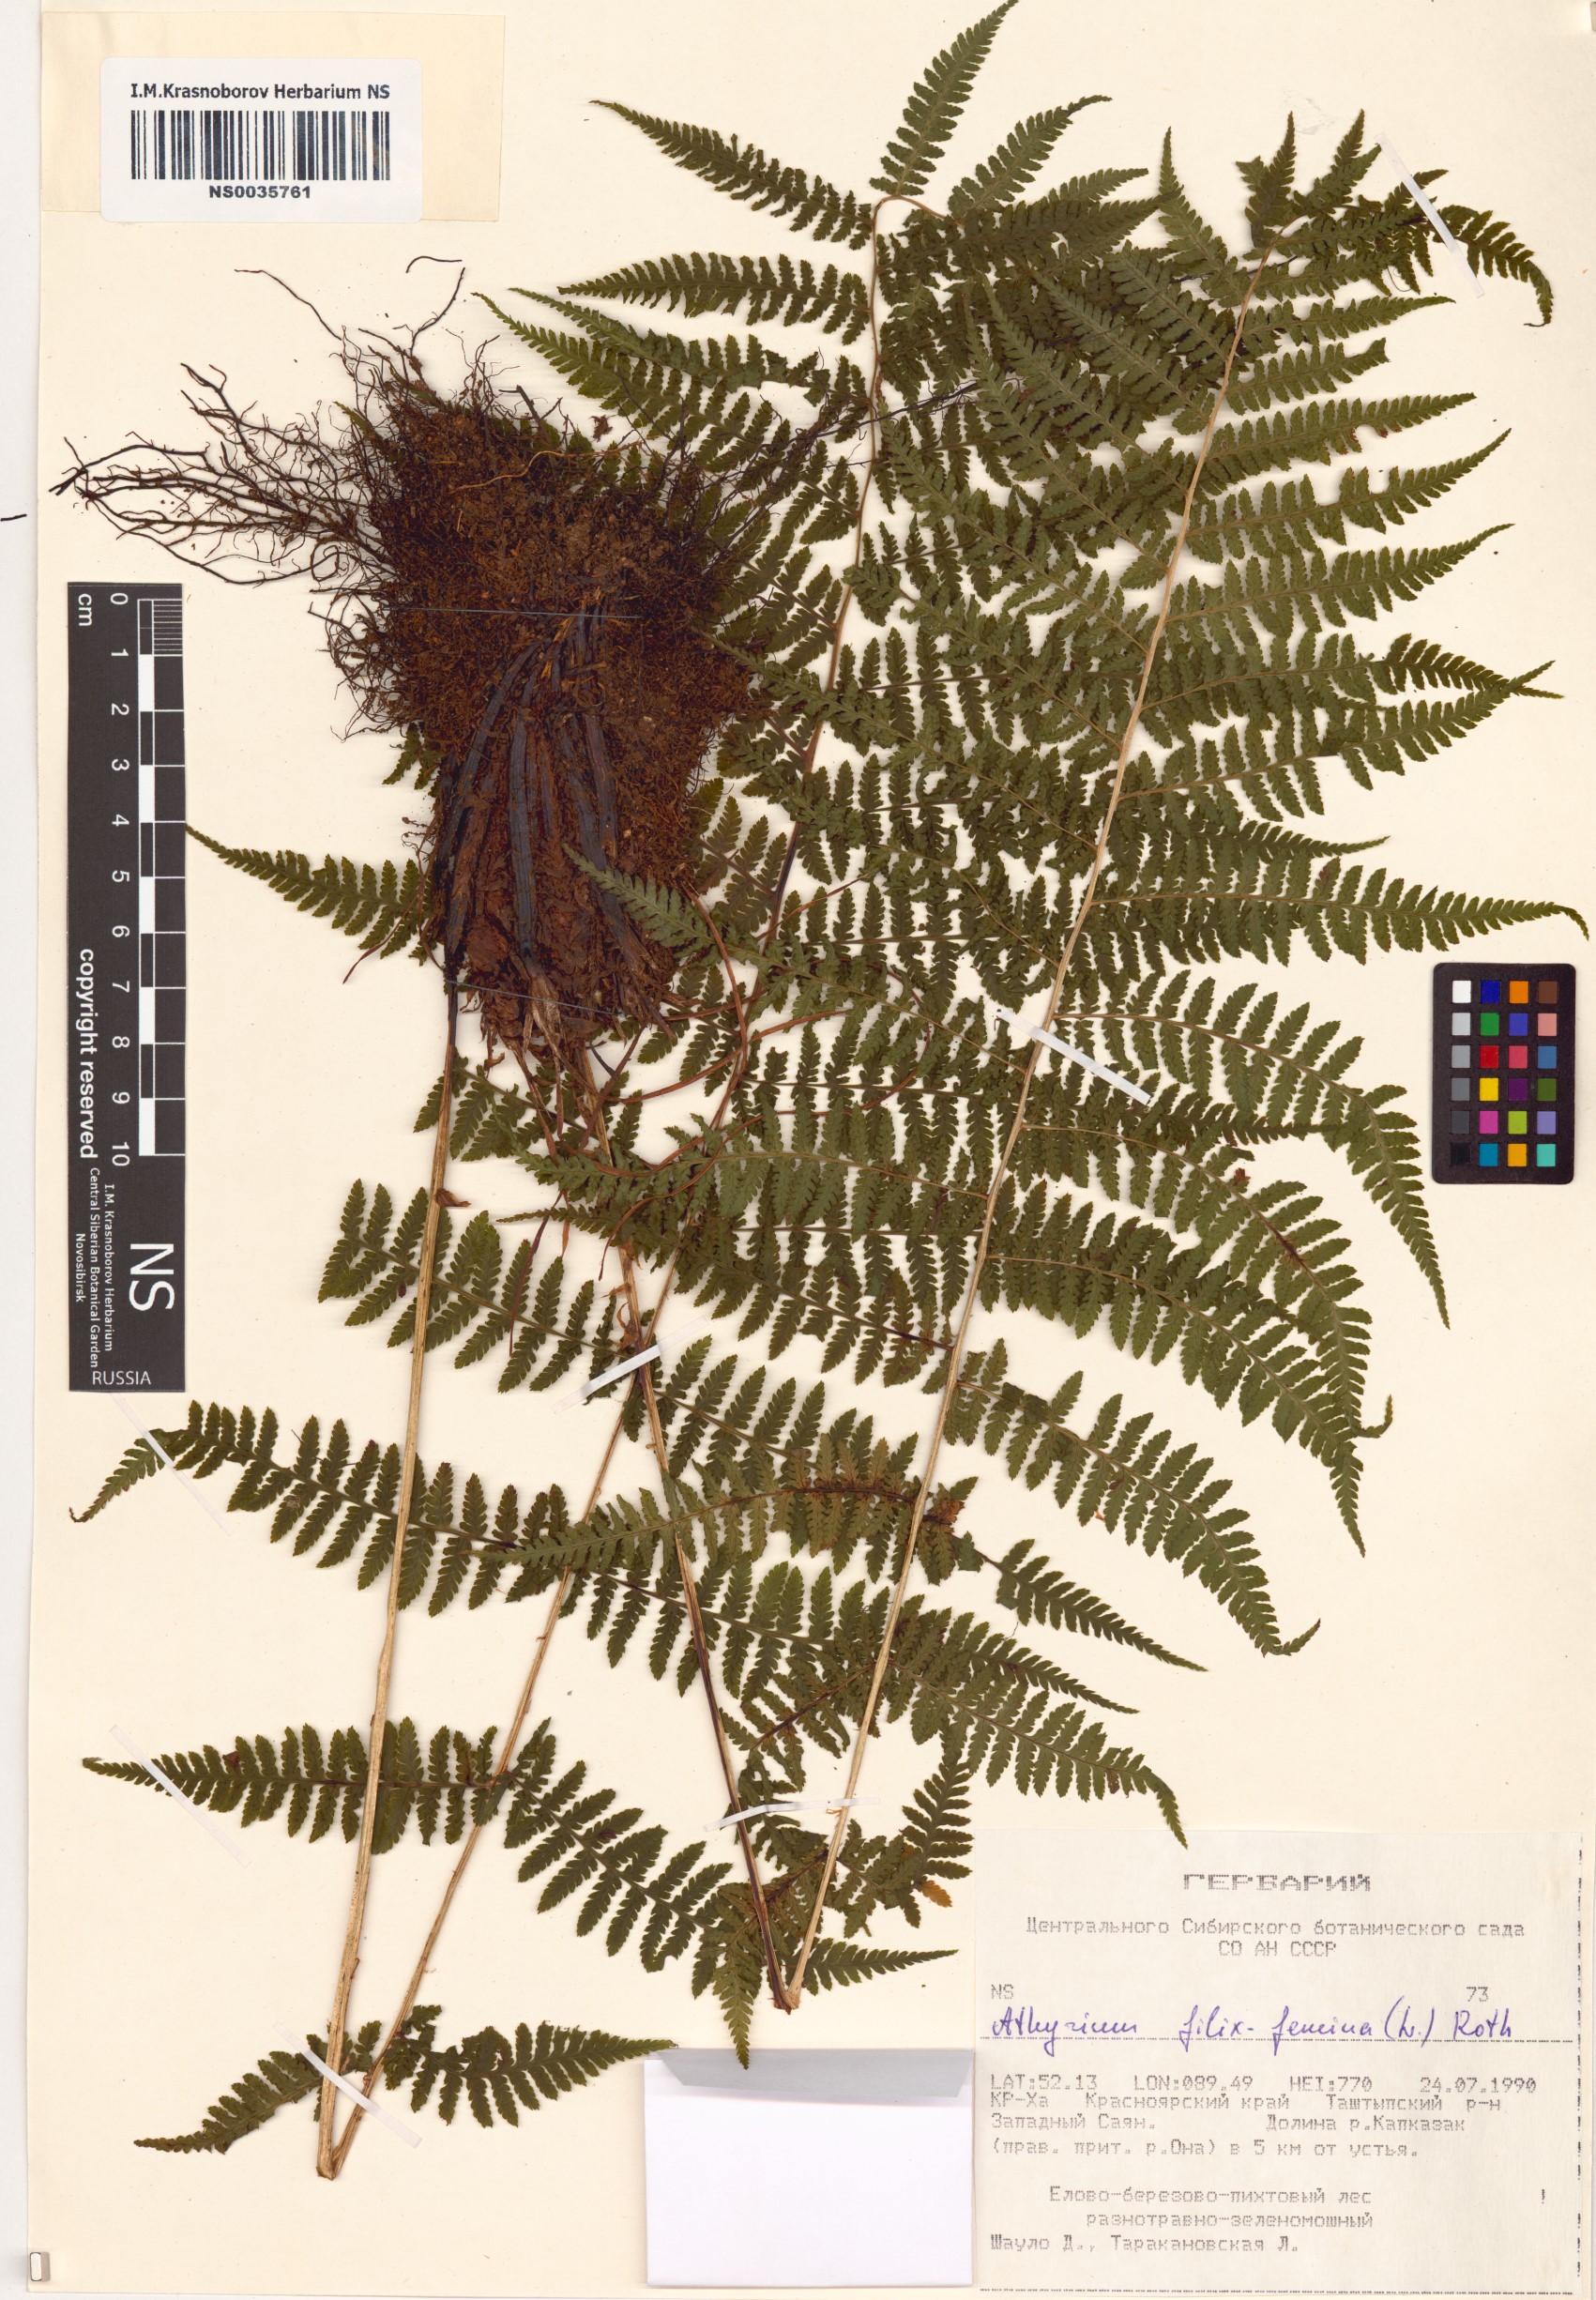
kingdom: Plantae
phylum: Tracheophyta
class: Polypodiopsida
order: Polypodiales
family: Athyriaceae
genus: Athyrium
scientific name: Athyrium filix-femina
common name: Lady fern
